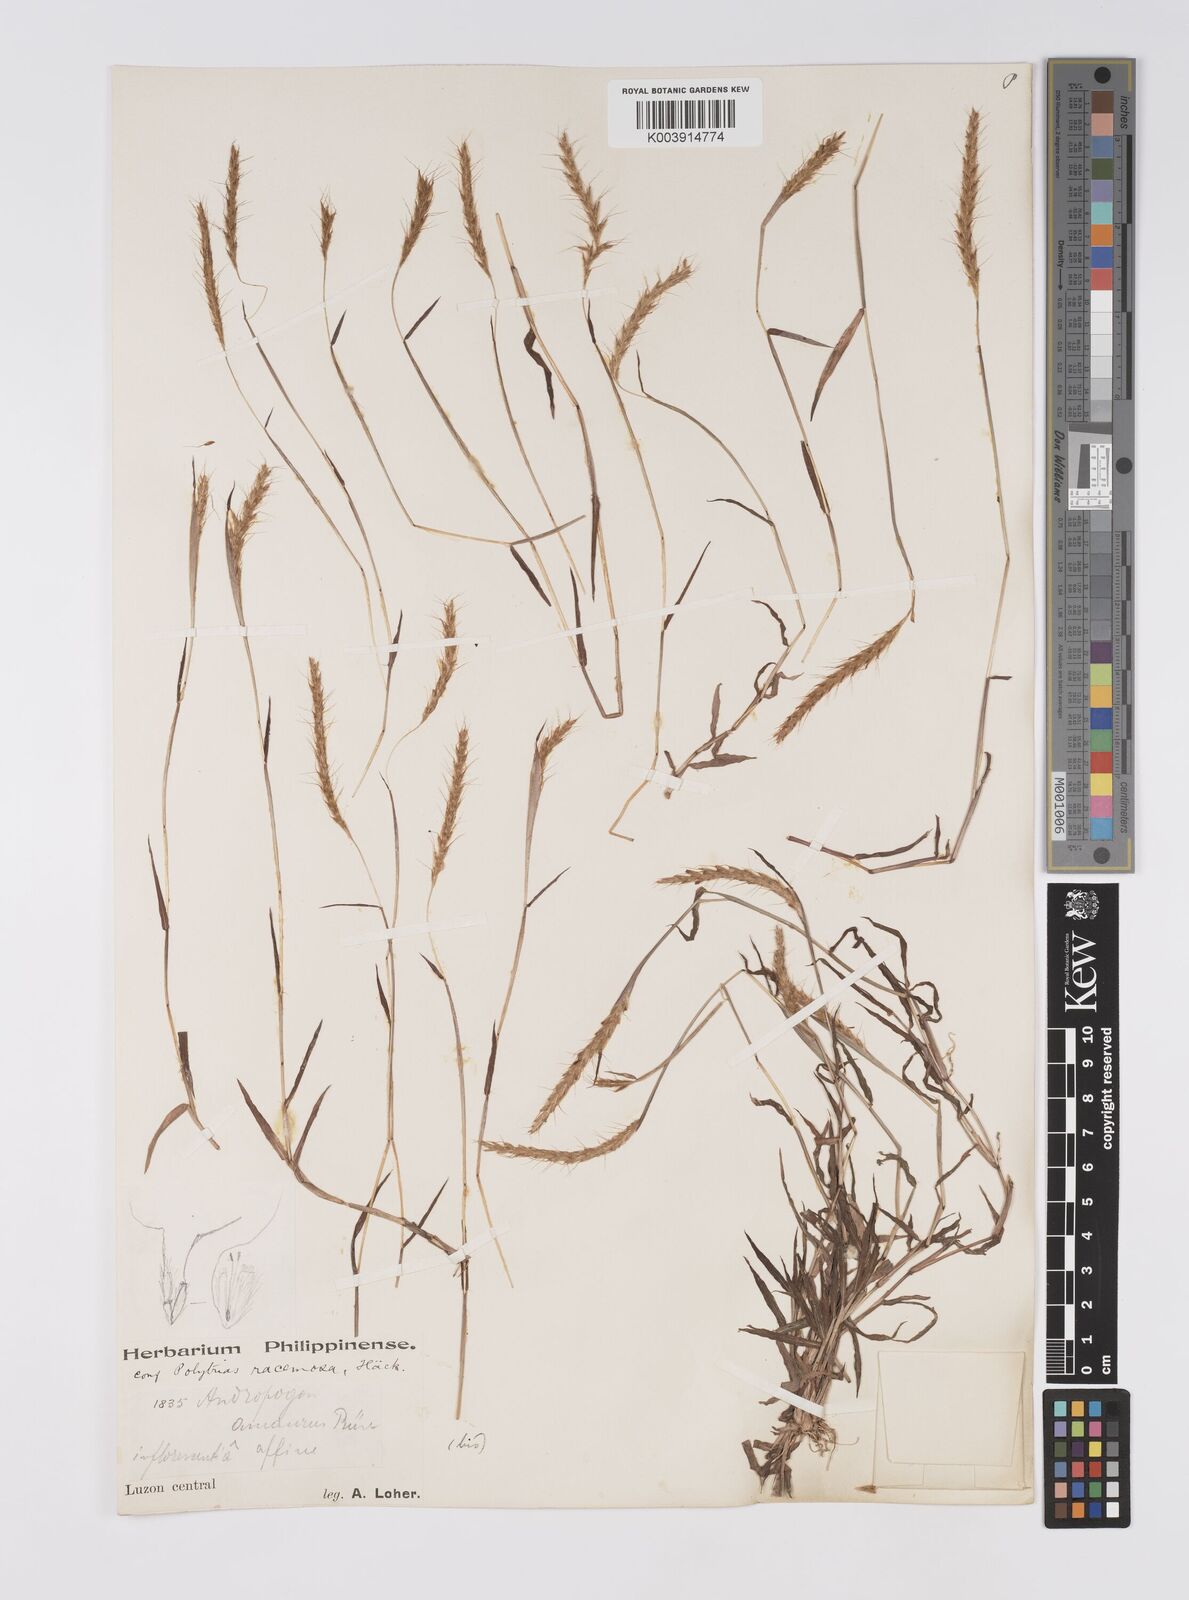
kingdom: Plantae
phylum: Tracheophyta
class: Liliopsida
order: Poales
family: Poaceae
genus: Polytrias
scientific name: Polytrias indica
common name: Indian murainagrass
